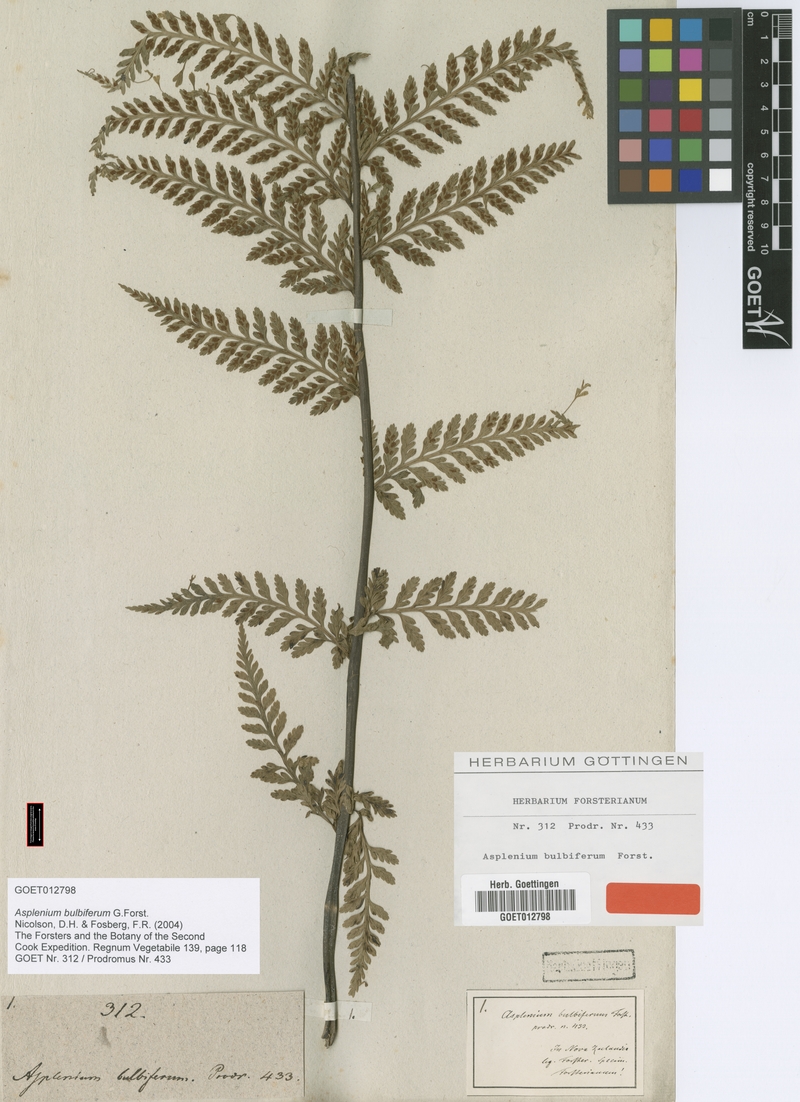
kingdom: Plantae
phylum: Tracheophyta
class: Polypodiopsida
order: Polypodiales
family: Aspleniaceae
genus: Asplenium
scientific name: Asplenium bulbiferum
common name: Mother fern
